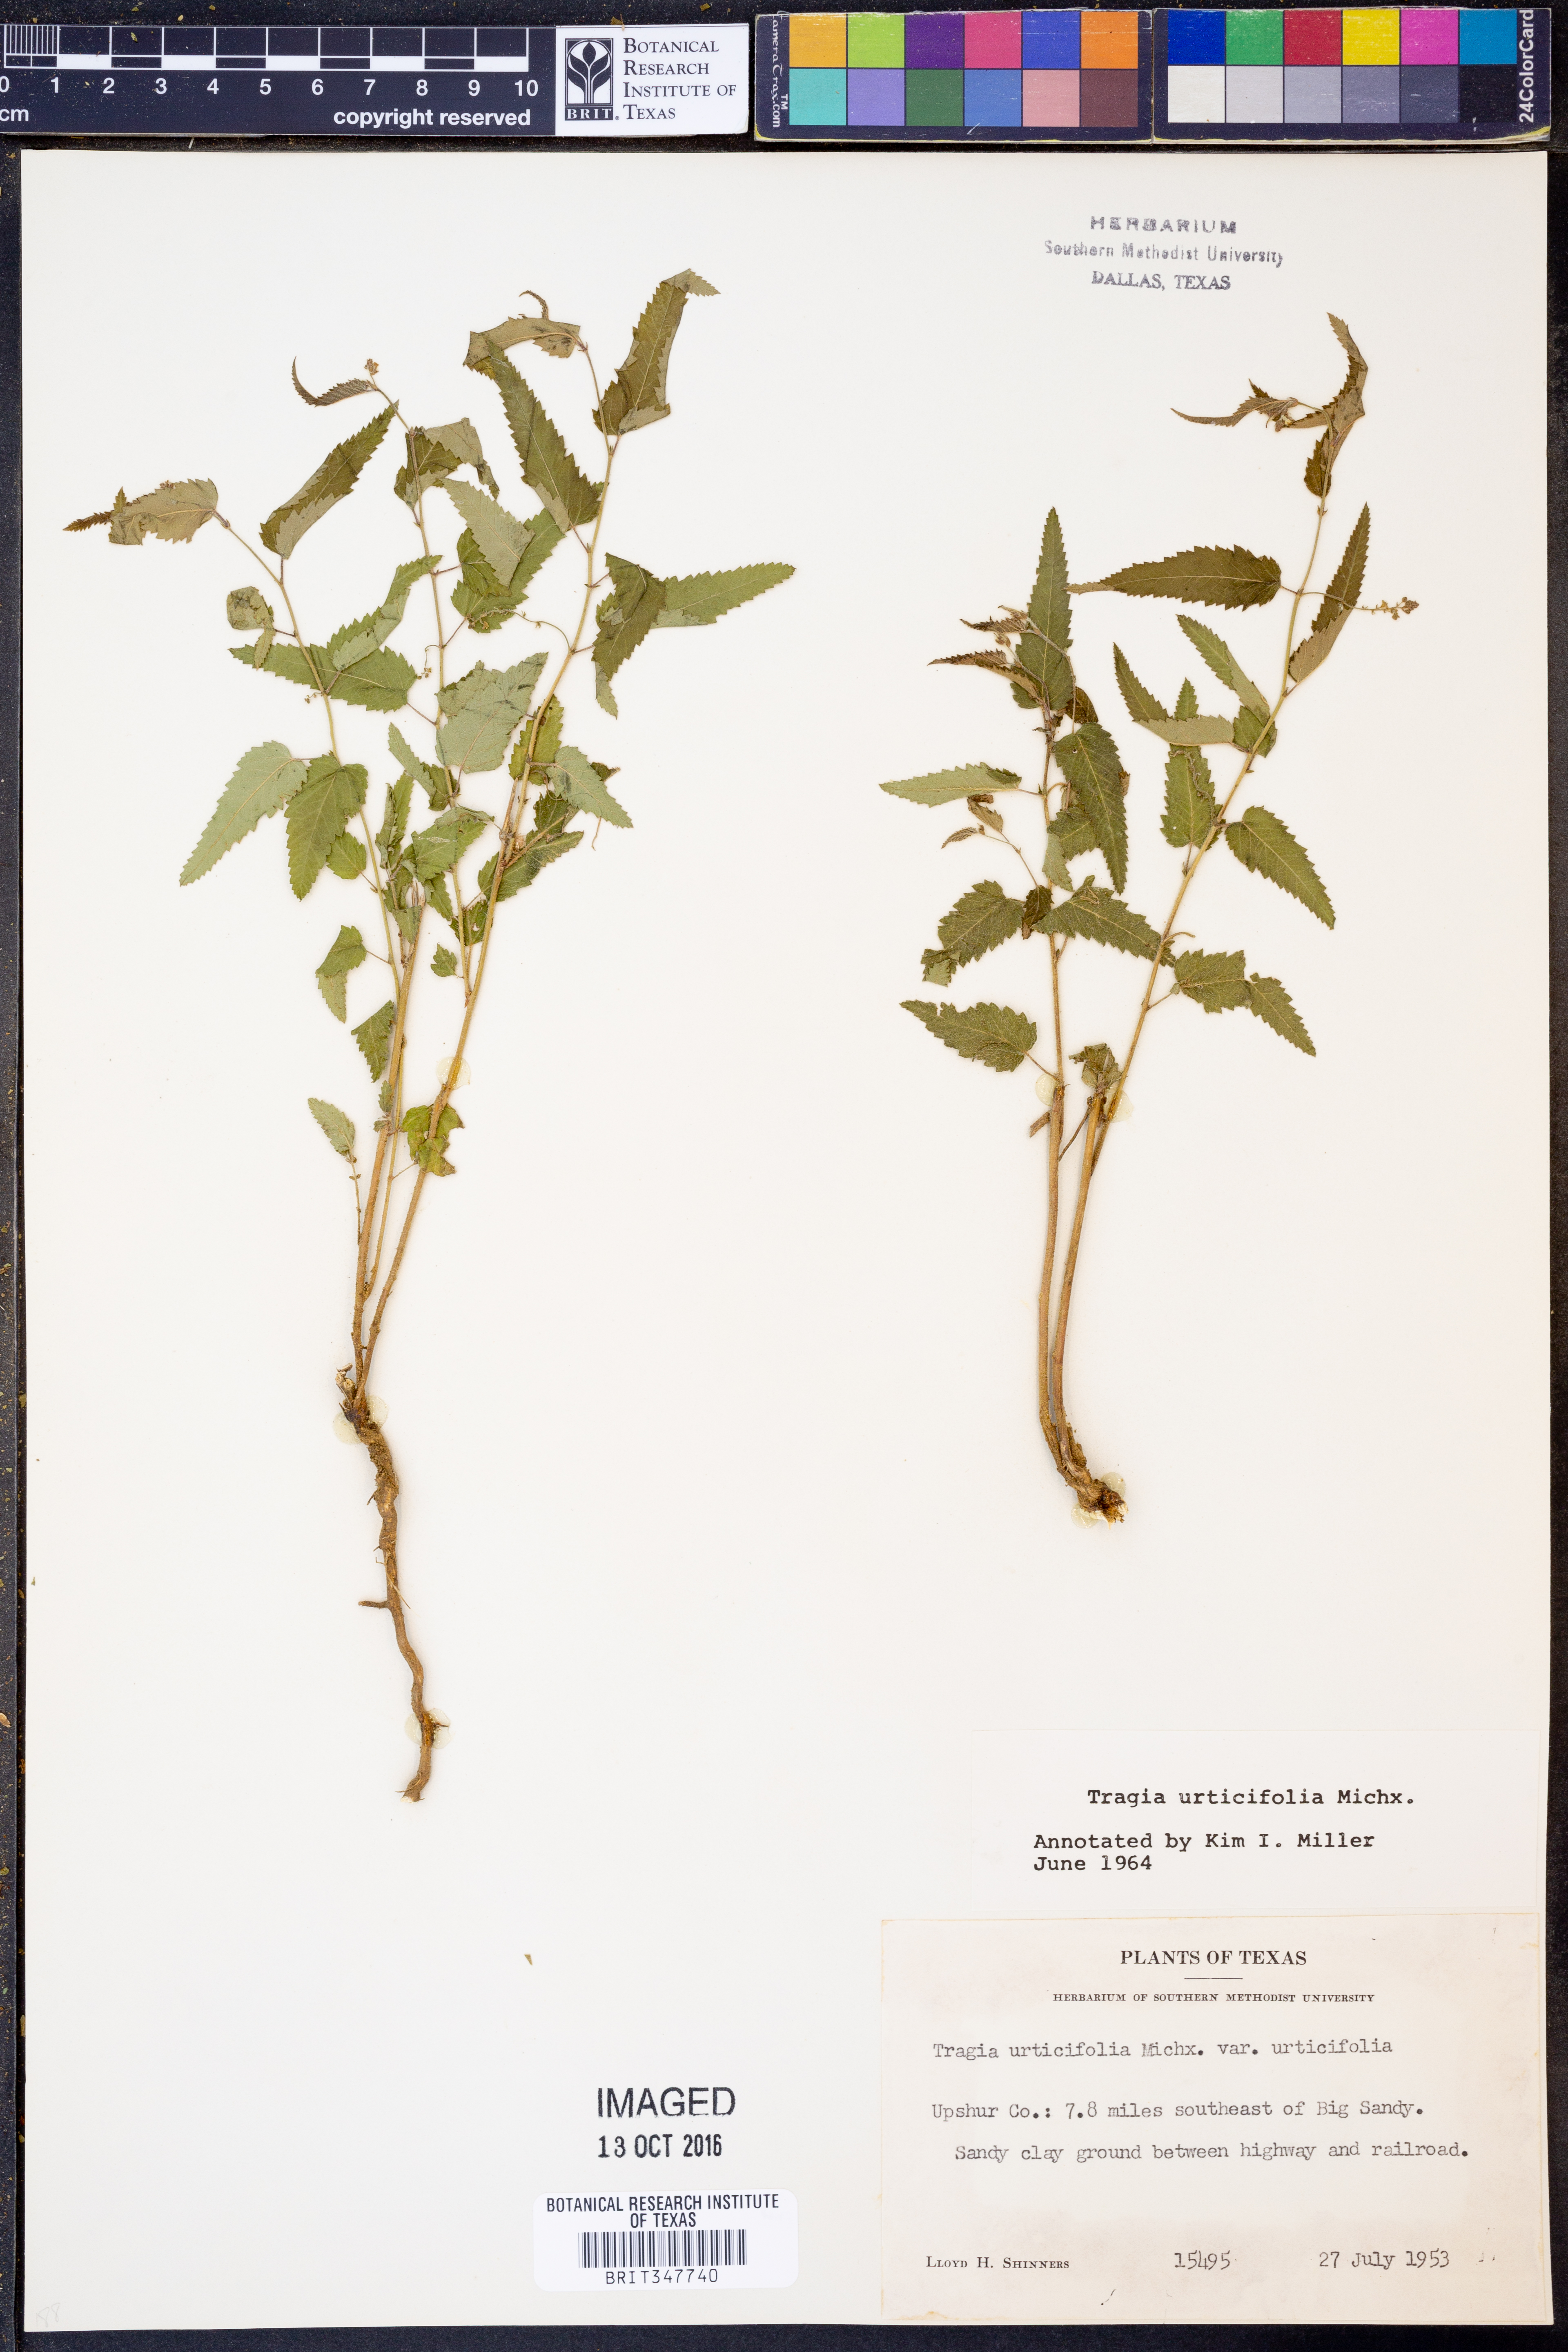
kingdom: Plantae
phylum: Tracheophyta
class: Magnoliopsida
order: Malpighiales
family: Euphorbiaceae
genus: Tragia
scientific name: Tragia urticifolia
